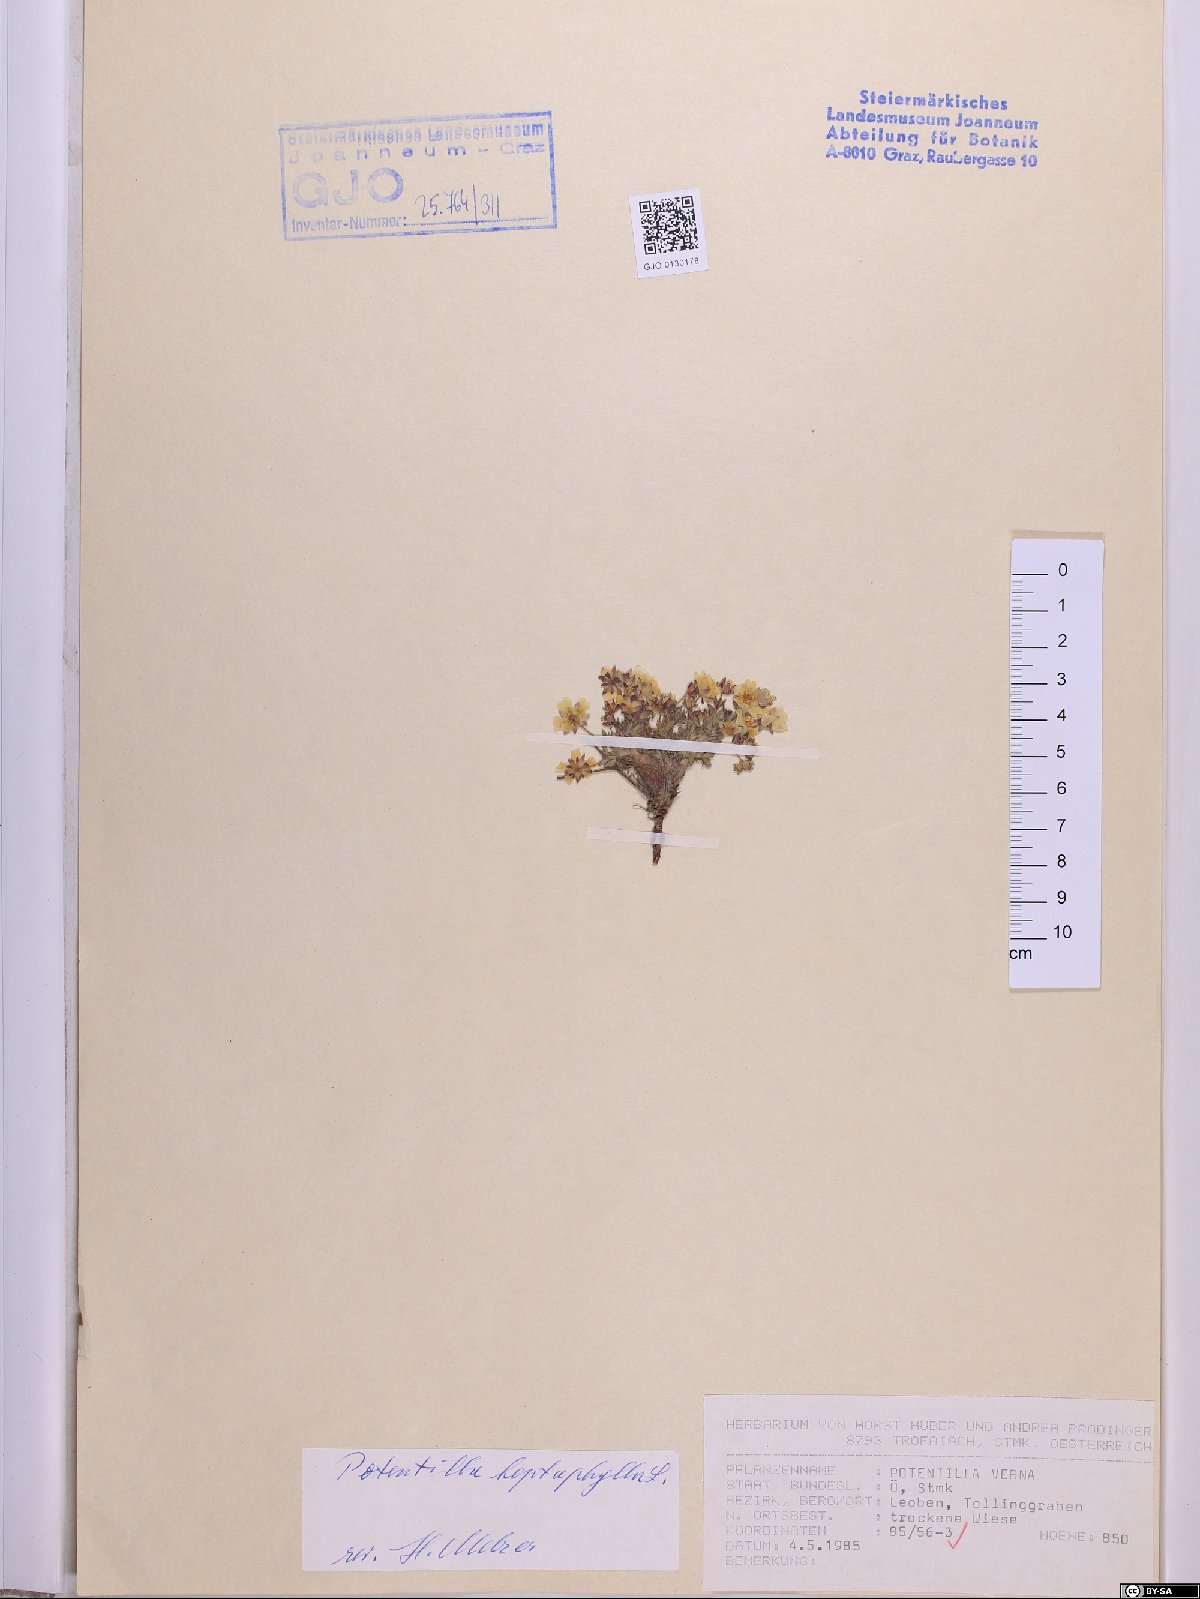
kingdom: Plantae
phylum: Tracheophyta
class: Magnoliopsida
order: Rosales
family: Rosaceae
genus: Potentilla
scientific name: Potentilla heptaphylla
